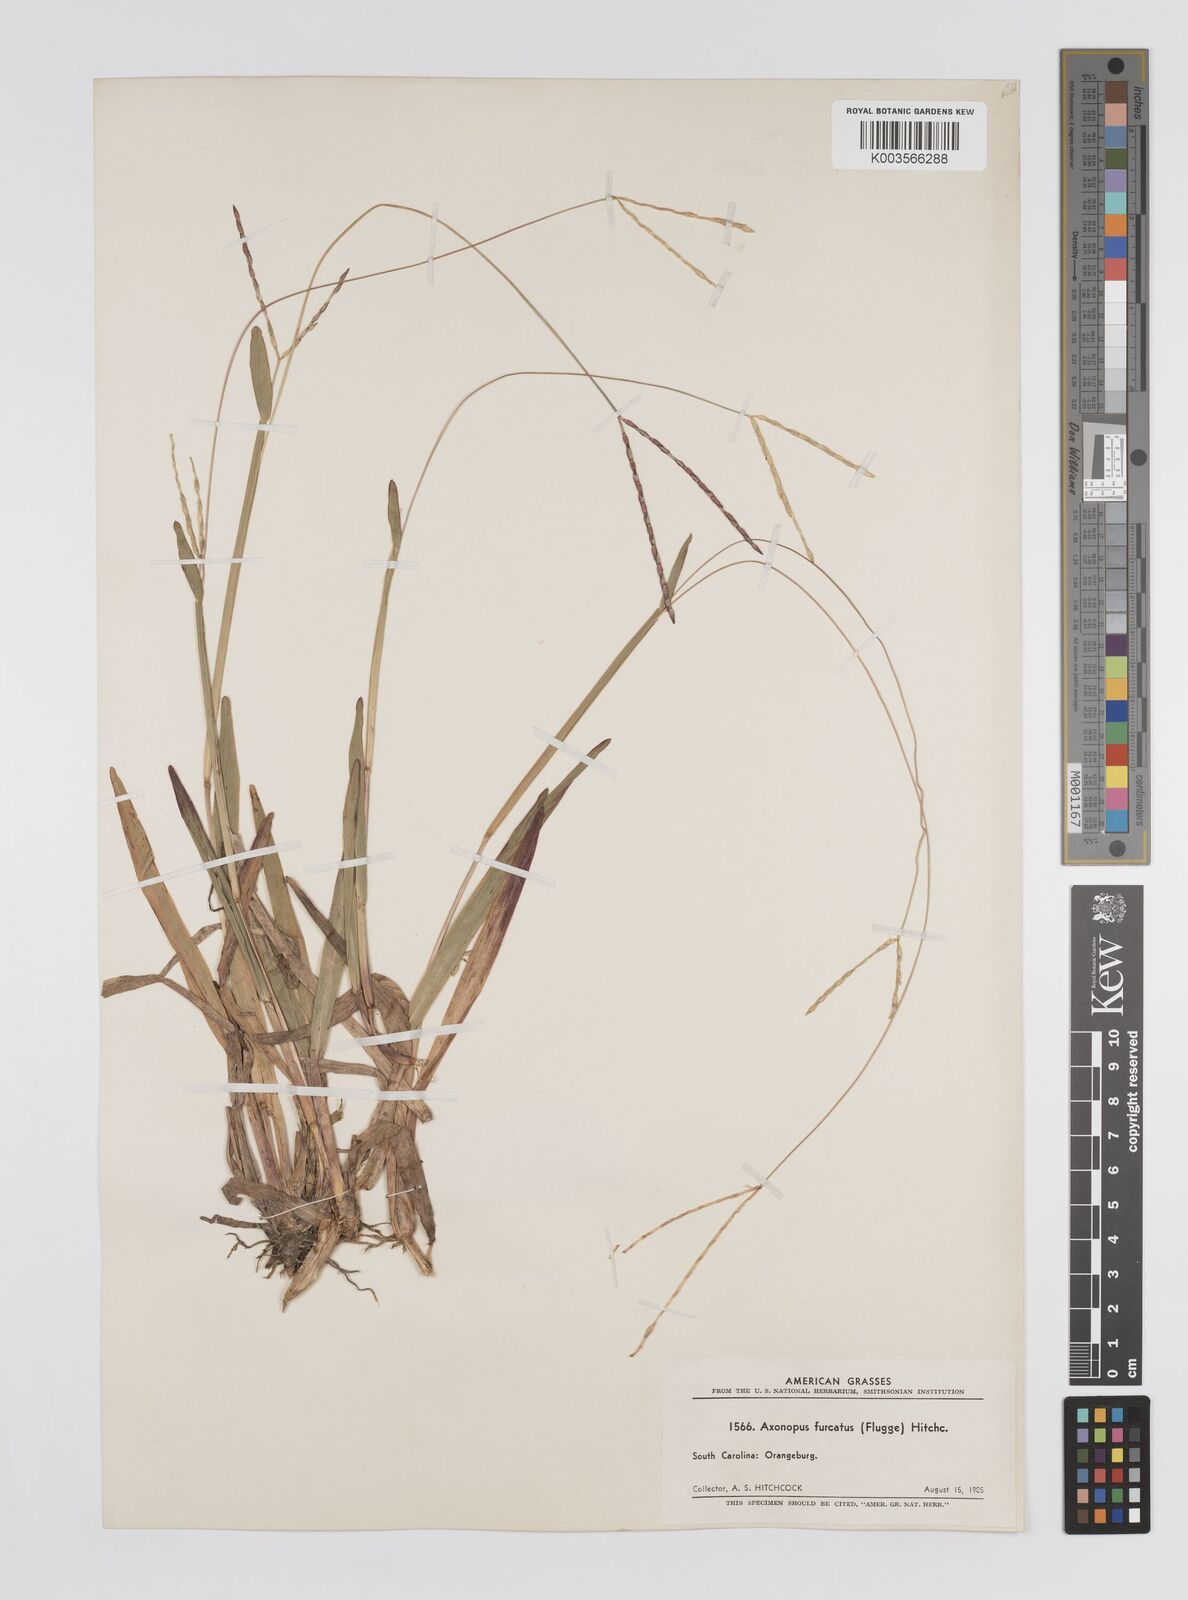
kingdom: Plantae
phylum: Tracheophyta
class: Liliopsida
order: Poales
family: Poaceae
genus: Axonopus
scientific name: Axonopus furcatus
